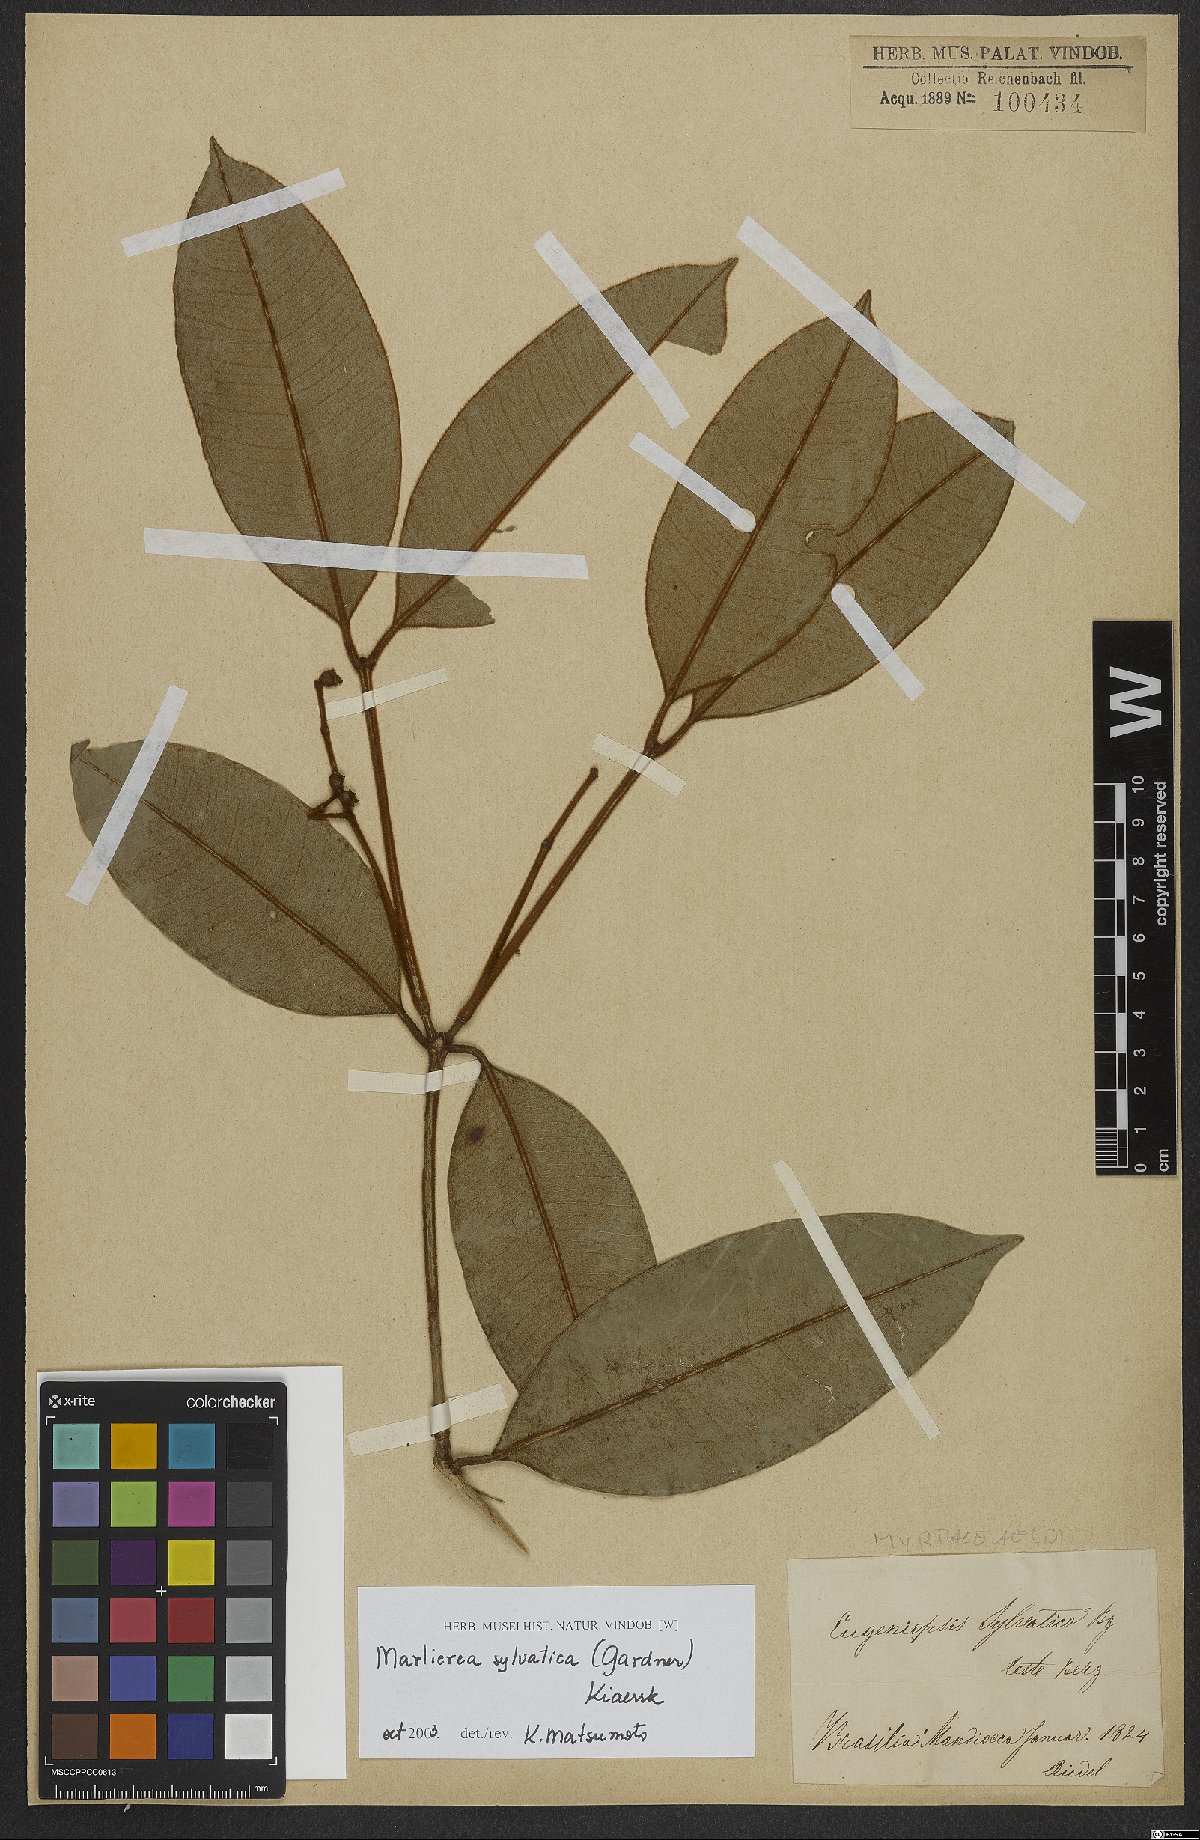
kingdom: Plantae
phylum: Tracheophyta
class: Magnoliopsida
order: Myrtales
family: Myrtaceae
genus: Myrcia
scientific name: Myrcia ferruginosa
